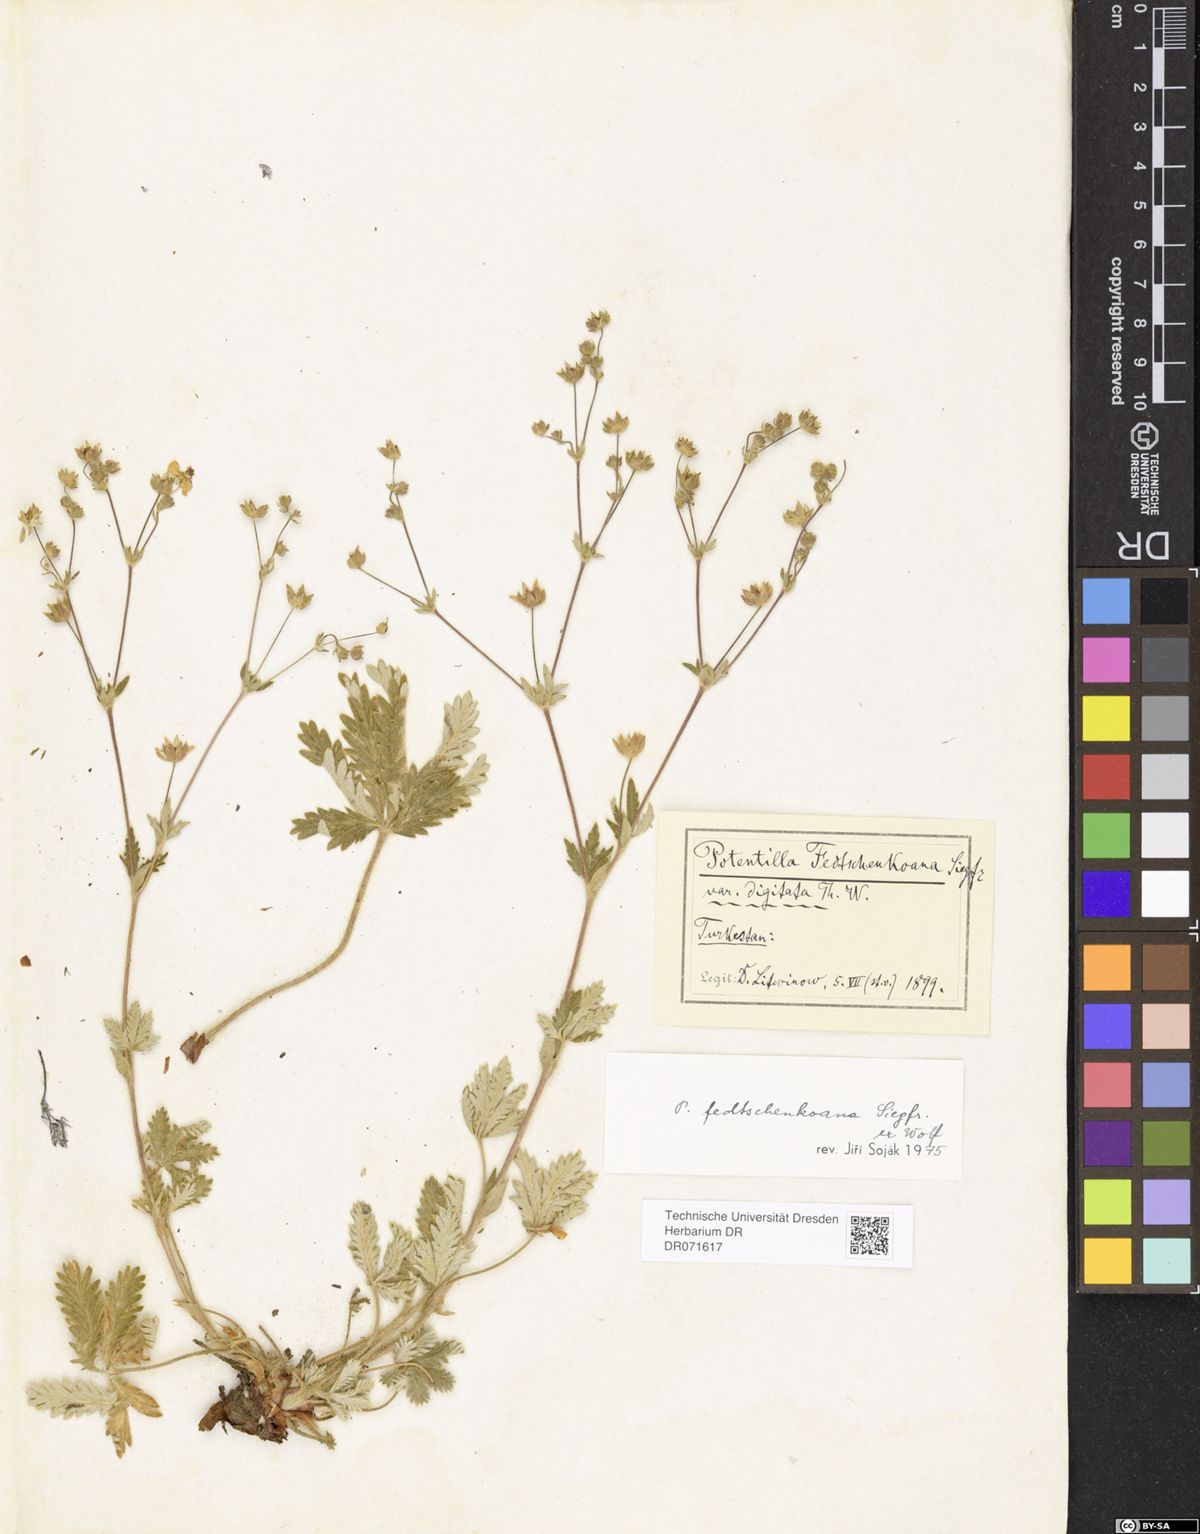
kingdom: Plantae
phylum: Tracheophyta
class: Magnoliopsida
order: Rosales
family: Rosaceae
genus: Potentilla
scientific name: Potentilla fedtschenkoana
